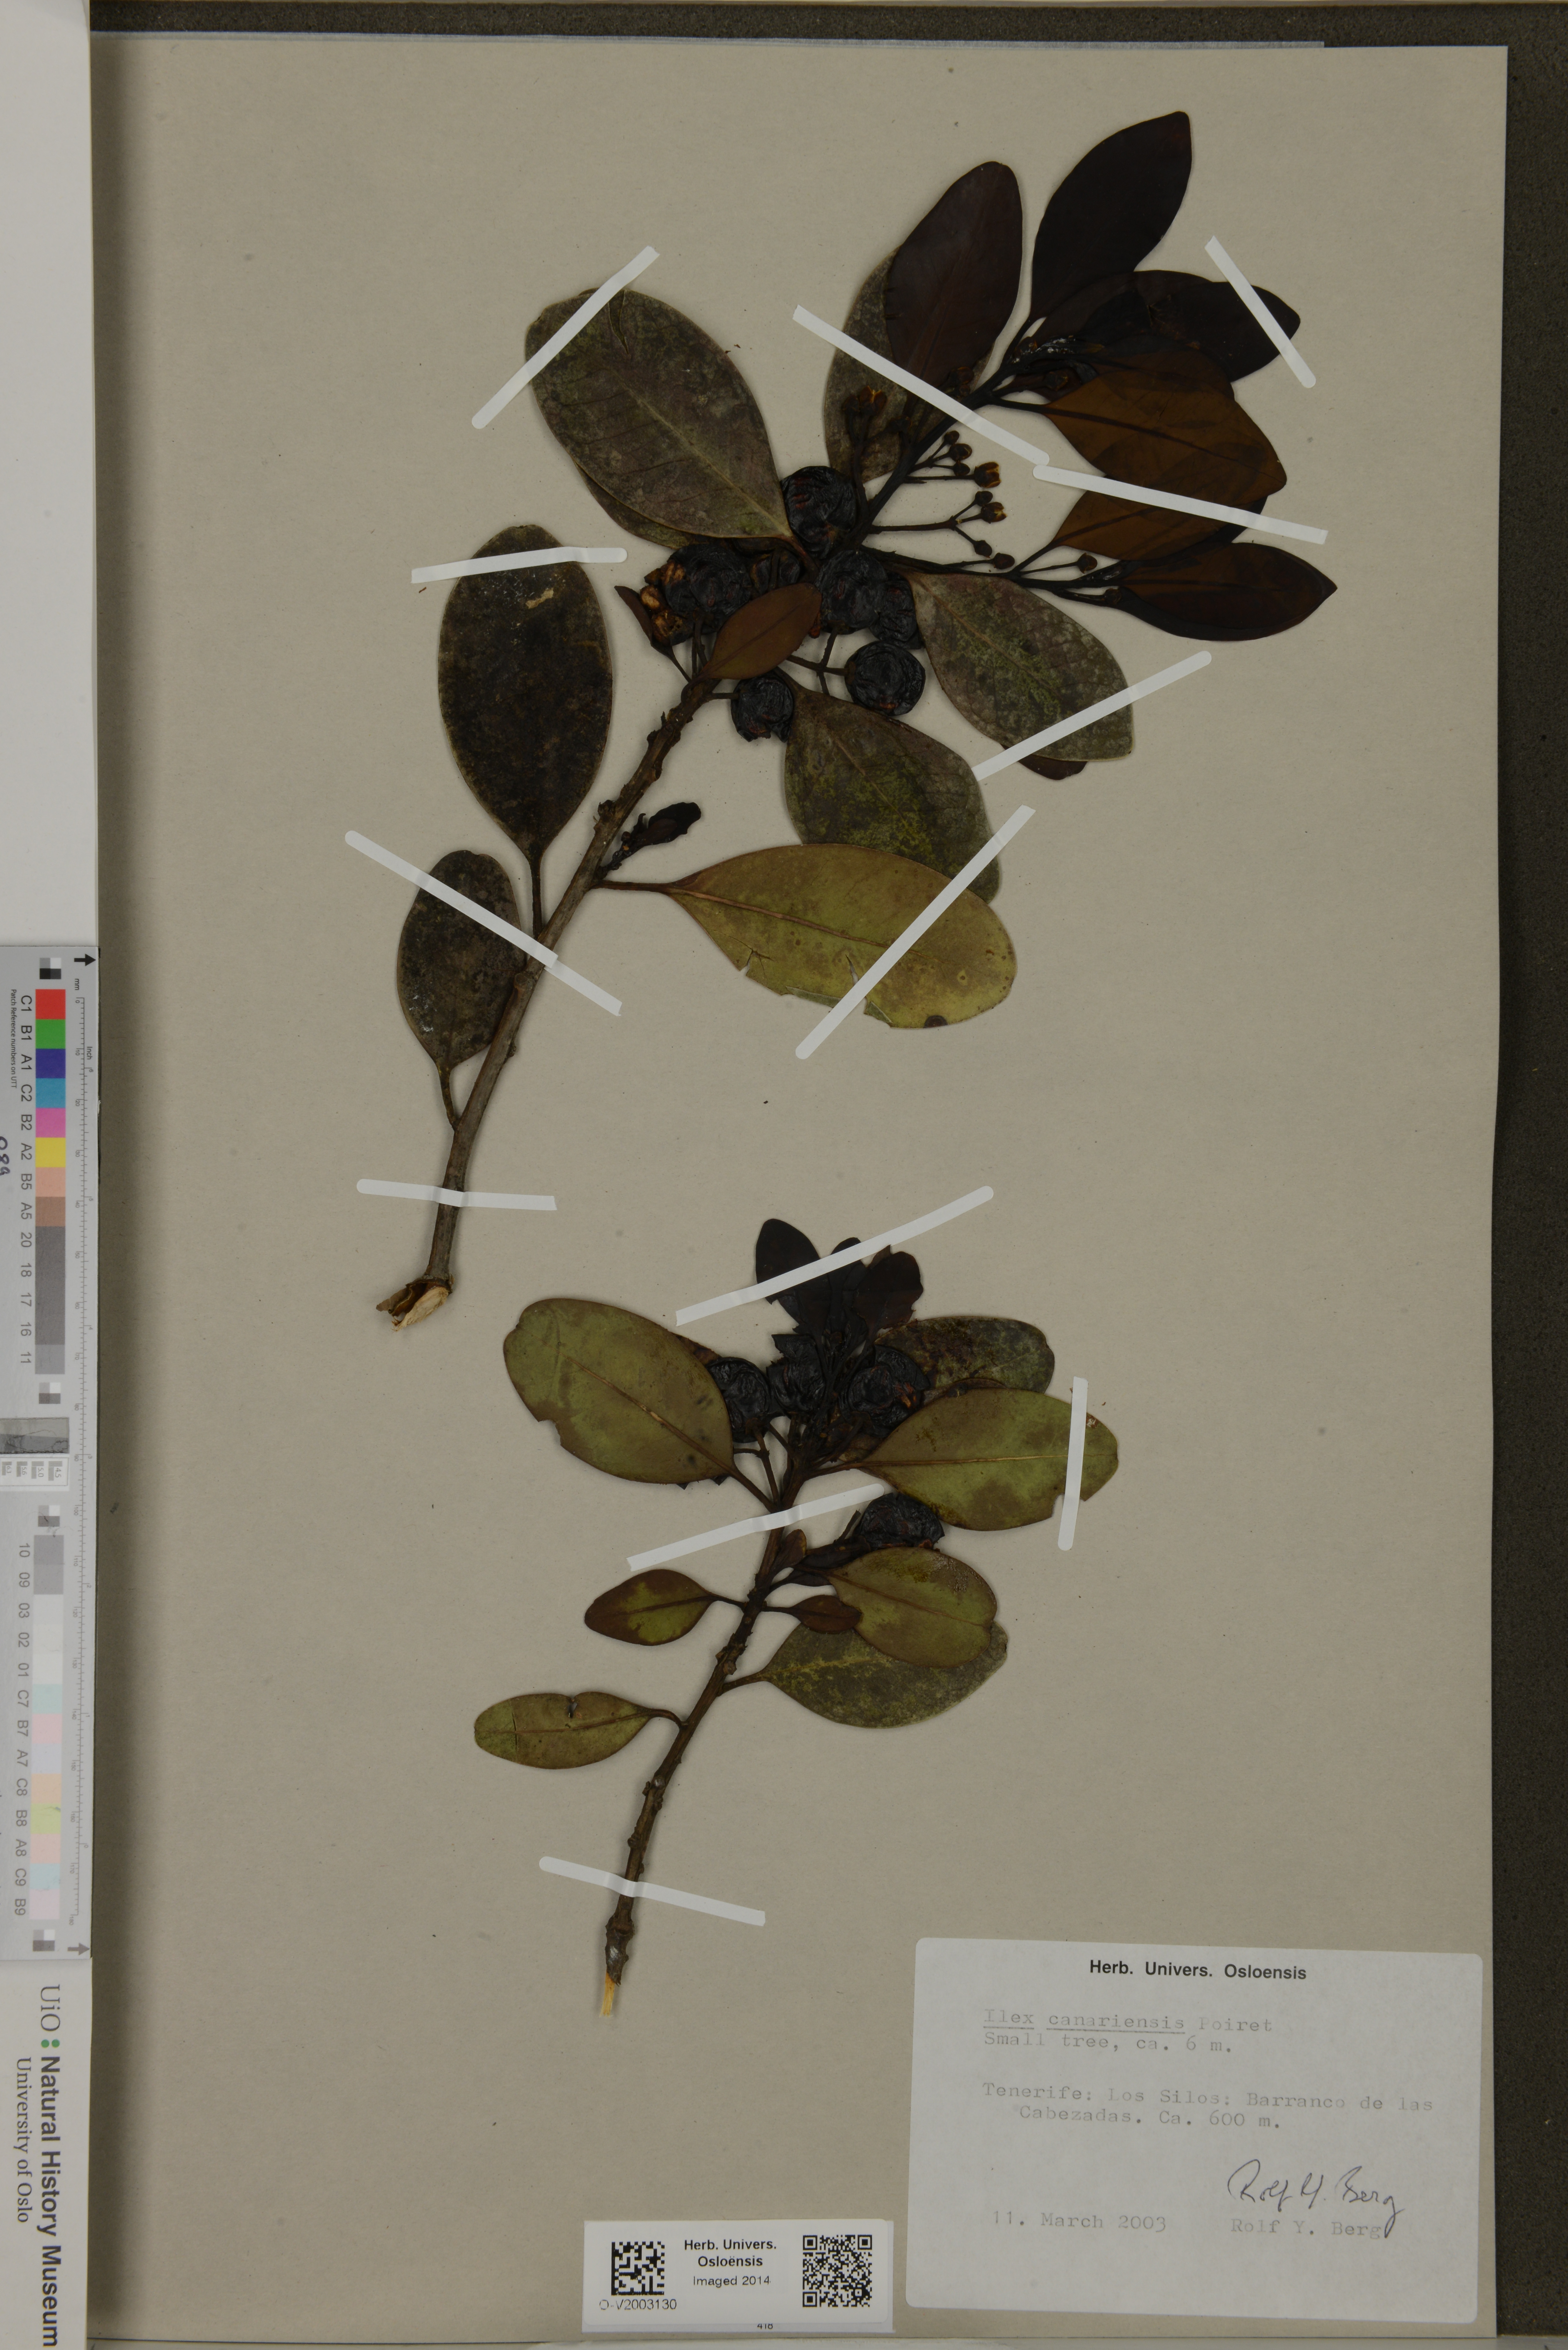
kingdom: Plantae
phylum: Tracheophyta
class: Magnoliopsida
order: Aquifoliales
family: Aquifoliaceae
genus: Ilex
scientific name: Ilex canariensis
